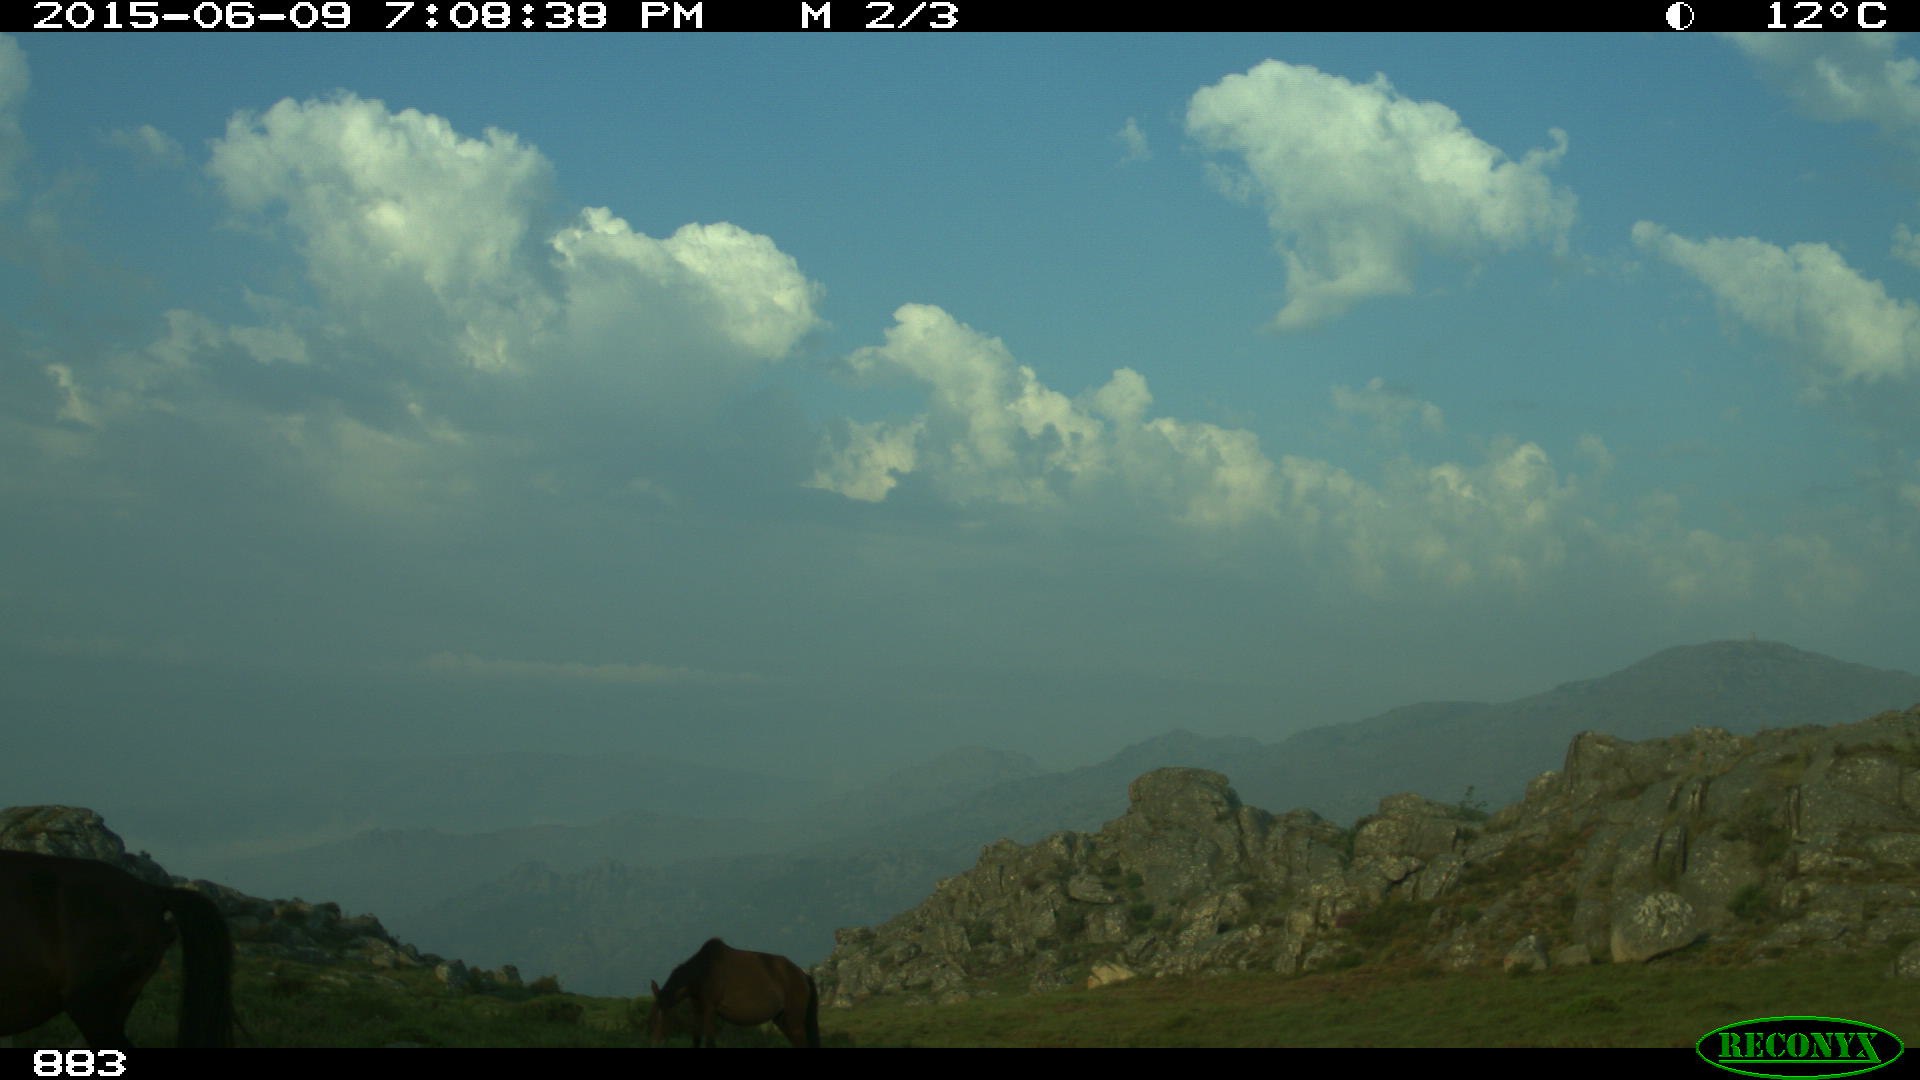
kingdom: Animalia
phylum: Chordata
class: Mammalia
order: Perissodactyla
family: Equidae
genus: Equus
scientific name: Equus caballus
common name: Horse
